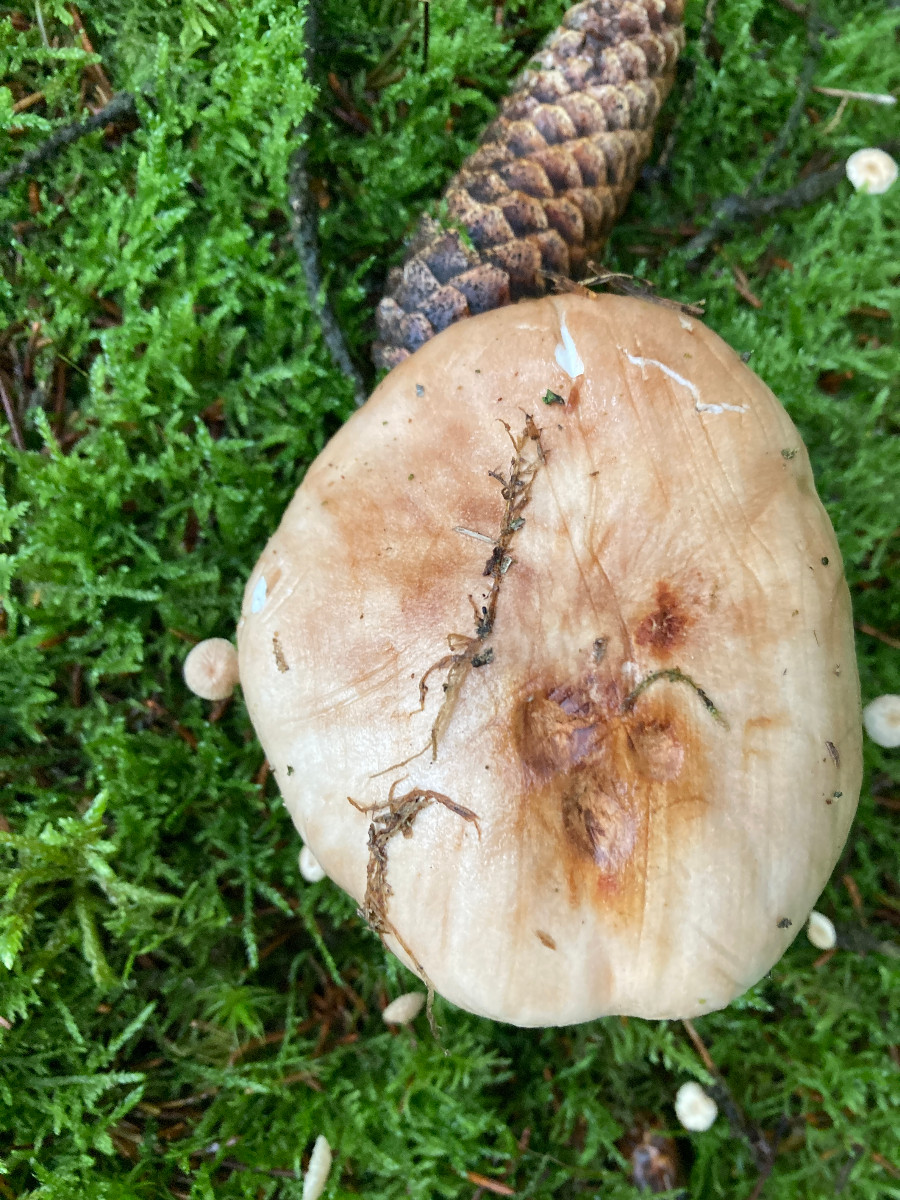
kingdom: Fungi
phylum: Basidiomycota
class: Agaricomycetes
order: Agaricales
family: Tricholomataceae
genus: Tricholoma
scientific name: Tricholoma stans
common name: stolt ridderhat
